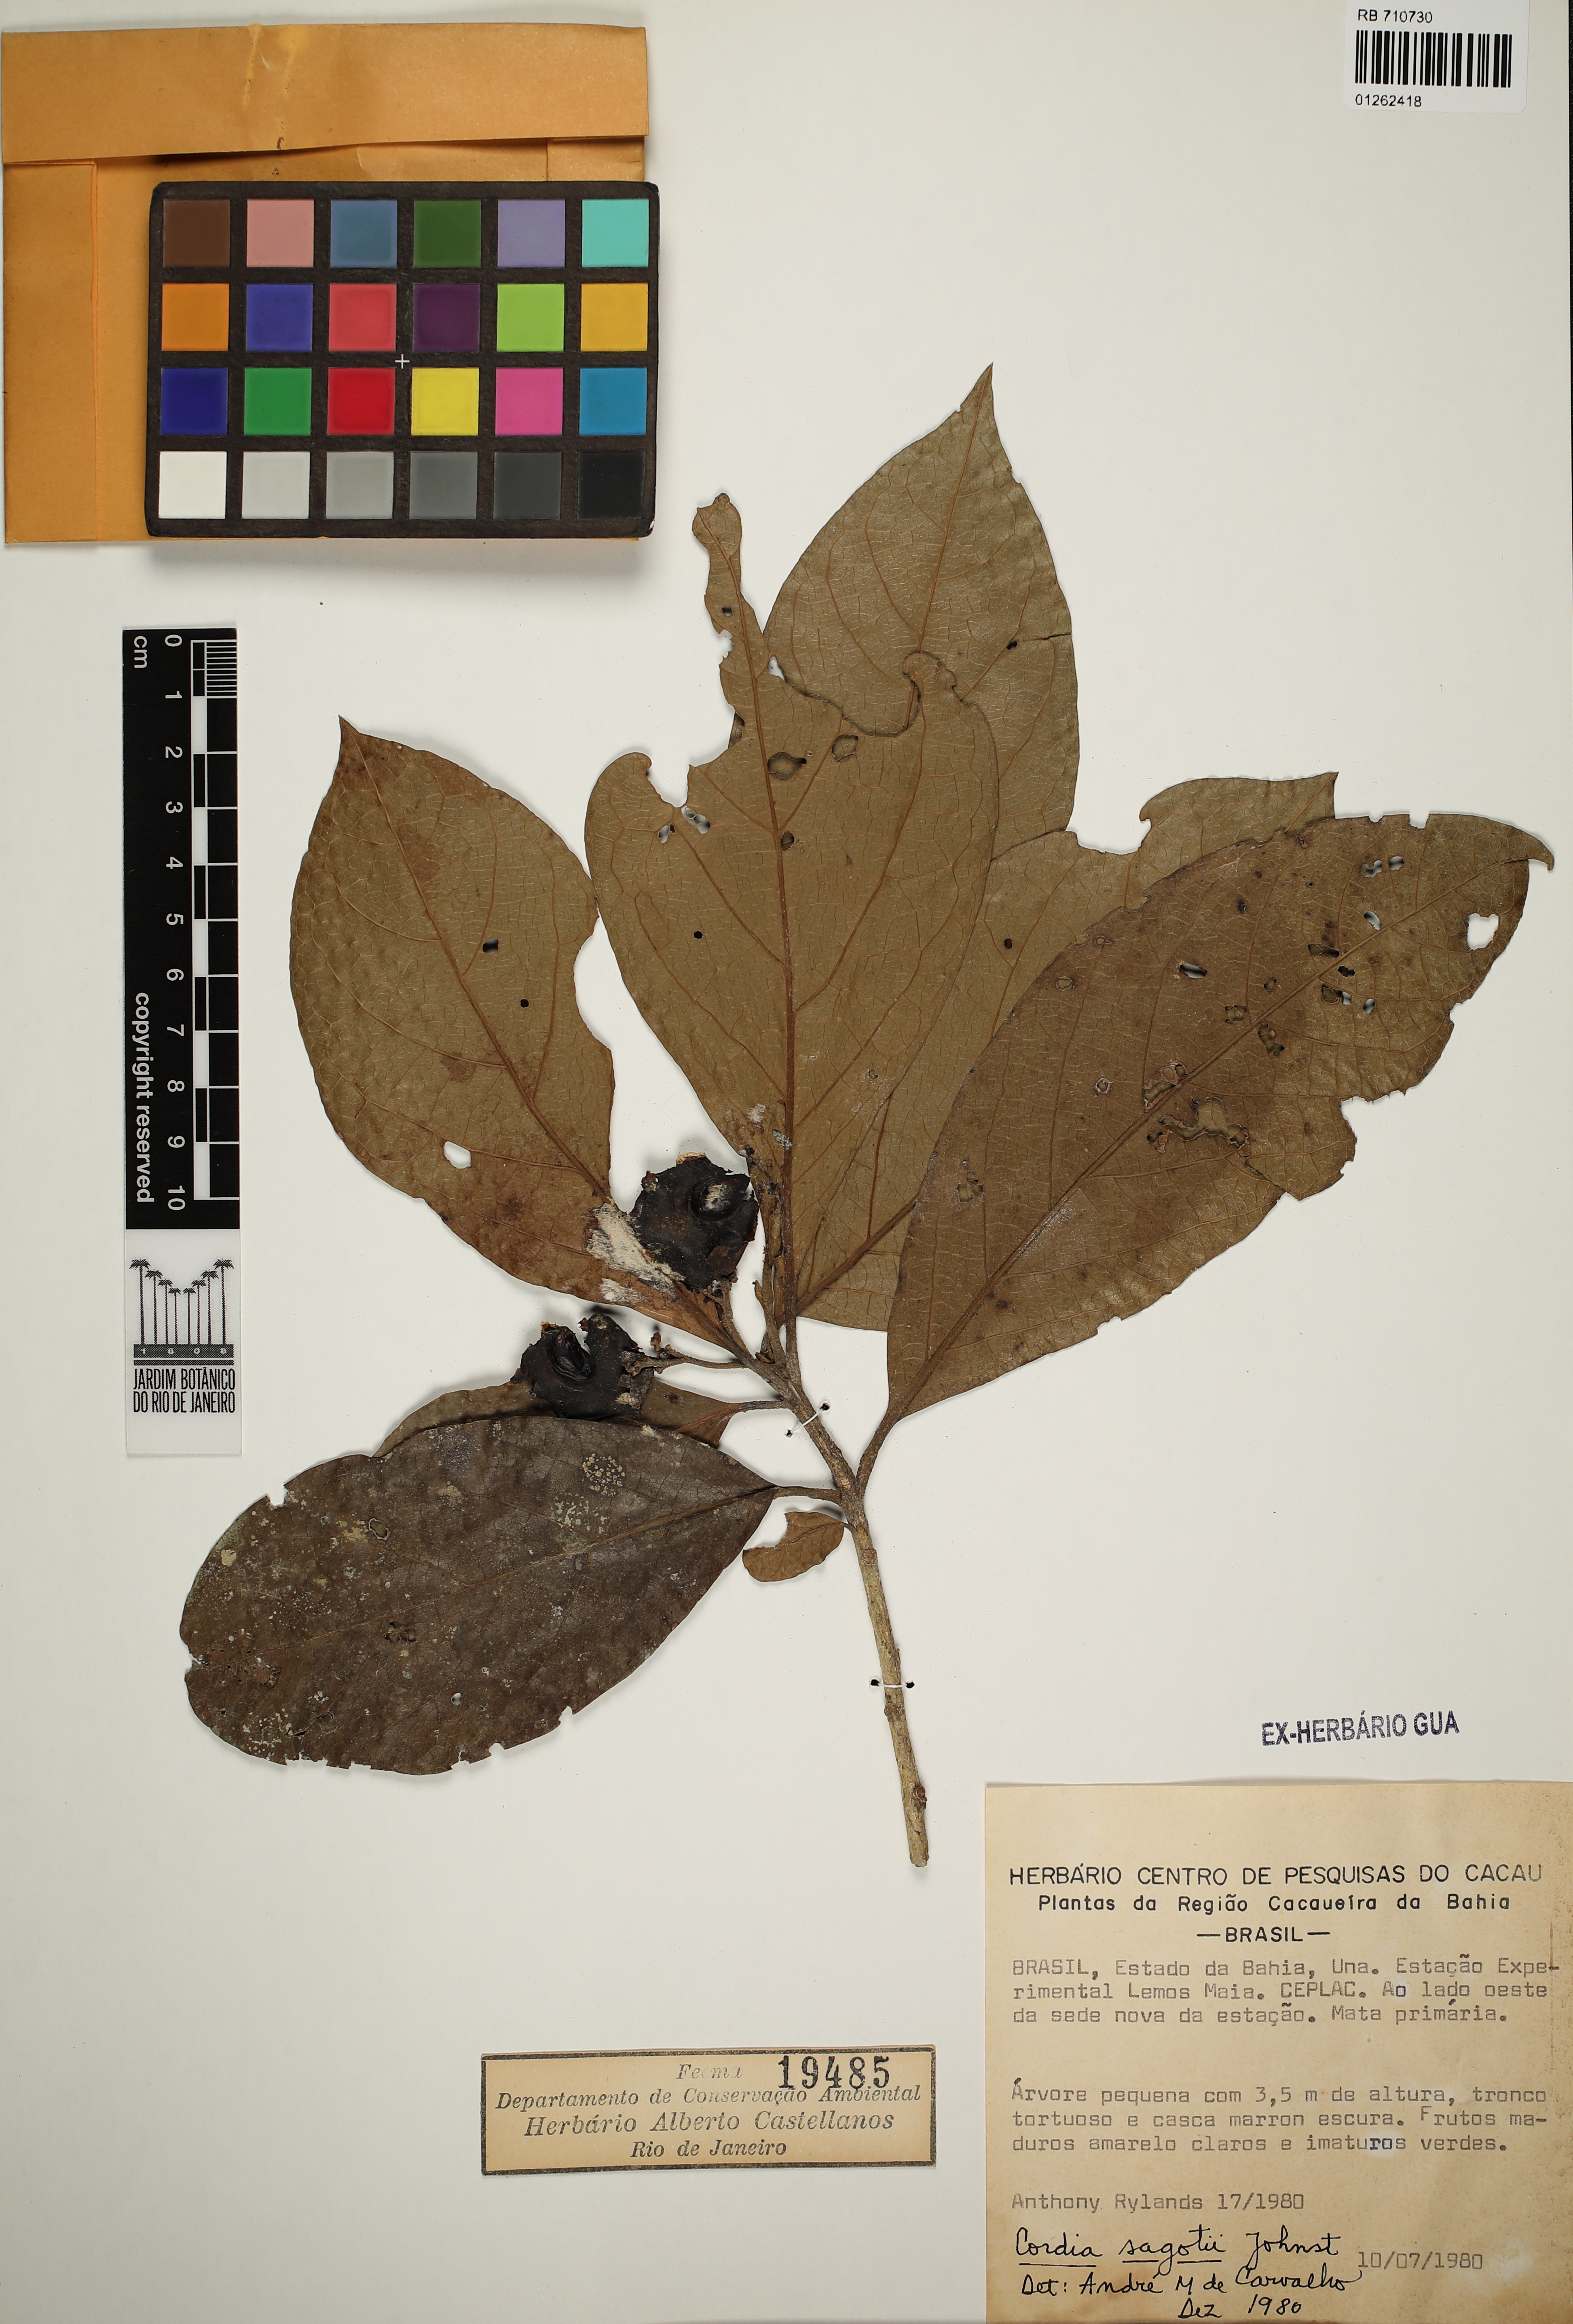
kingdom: Plantae
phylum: Tracheophyta
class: Magnoliopsida
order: Boraginales
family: Cordiaceae
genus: Cordia
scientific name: Cordia sagotii
